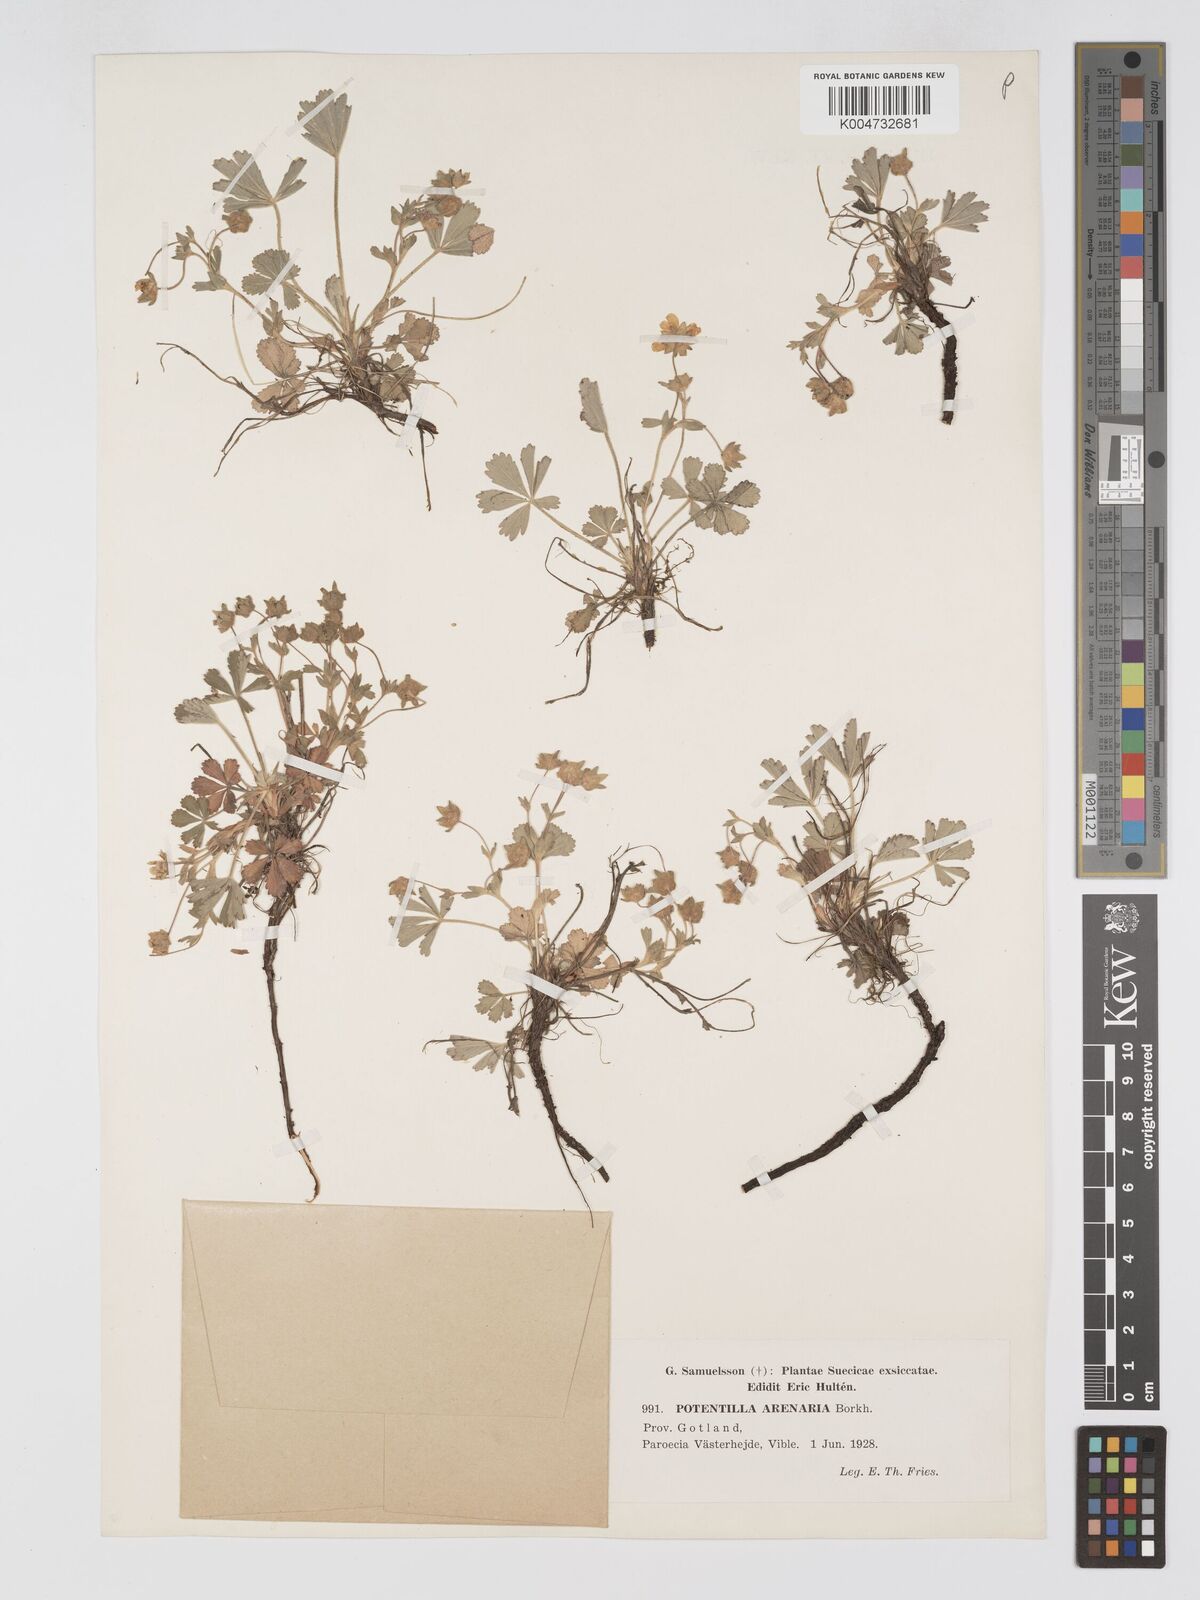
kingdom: Plantae
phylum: Tracheophyta
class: Magnoliopsida
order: Rosales
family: Rosaceae
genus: Potentilla
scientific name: Potentilla cinerea
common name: Ashy cinquefoil
